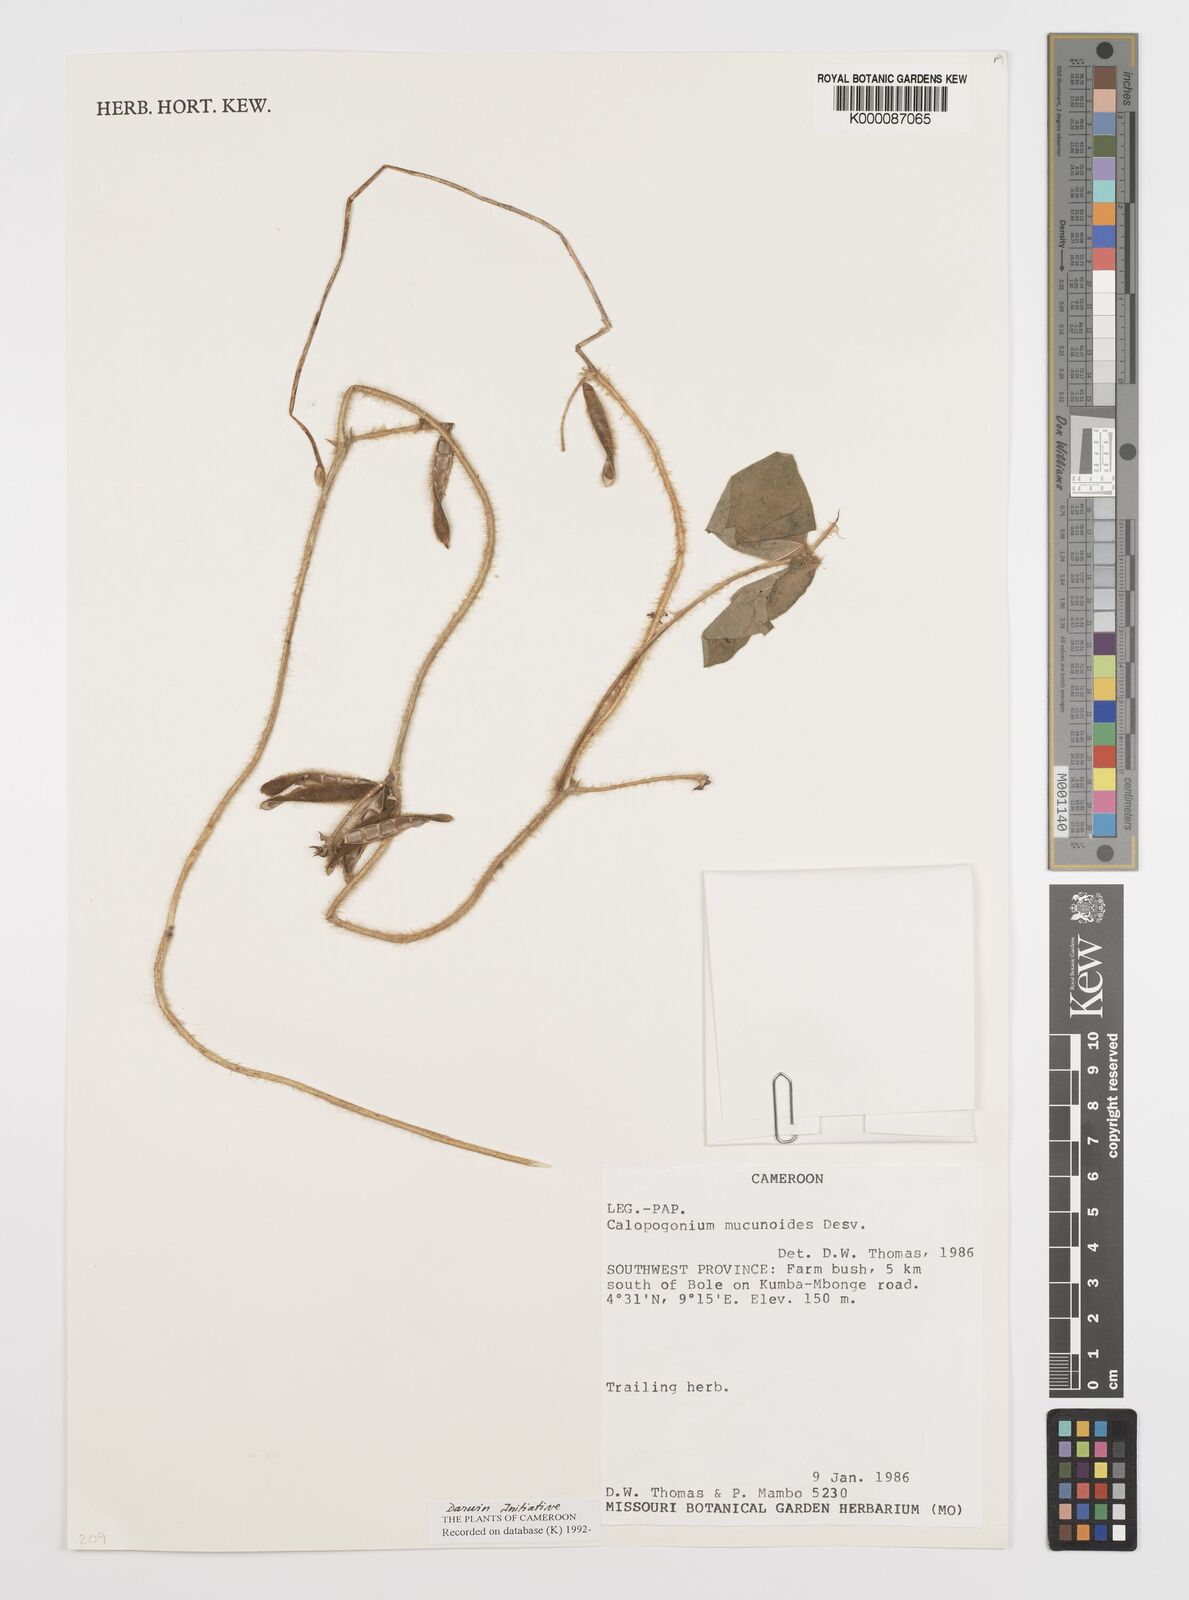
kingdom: Plantae
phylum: Tracheophyta
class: Magnoliopsida
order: Fabales
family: Fabaceae
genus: Calopogonium
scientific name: Calopogonium mucunoides
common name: Calopo
